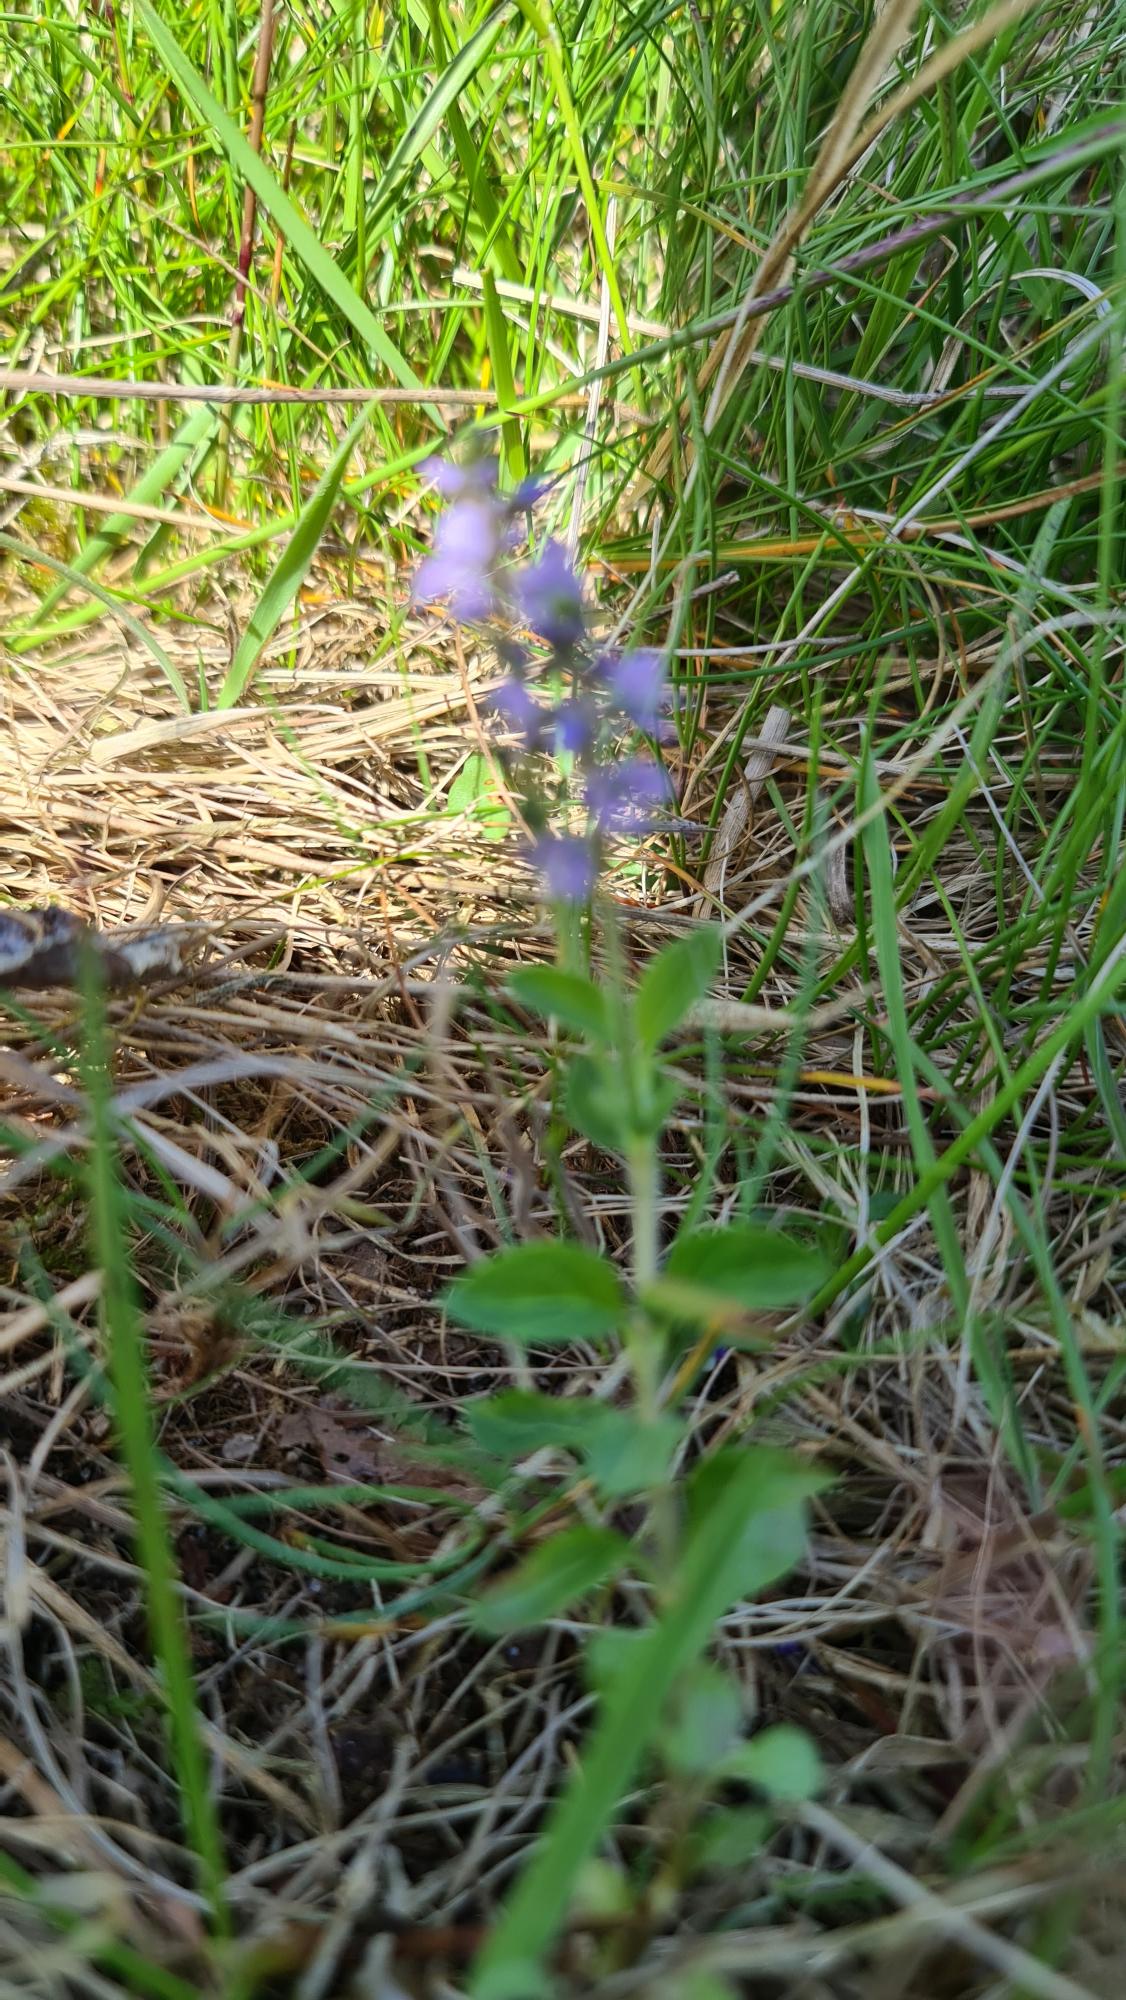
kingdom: Plantae
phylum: Tracheophyta
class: Magnoliopsida
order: Lamiales
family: Plantaginaceae
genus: Veronica
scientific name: Veronica officinalis
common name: Læge-ærenpris
